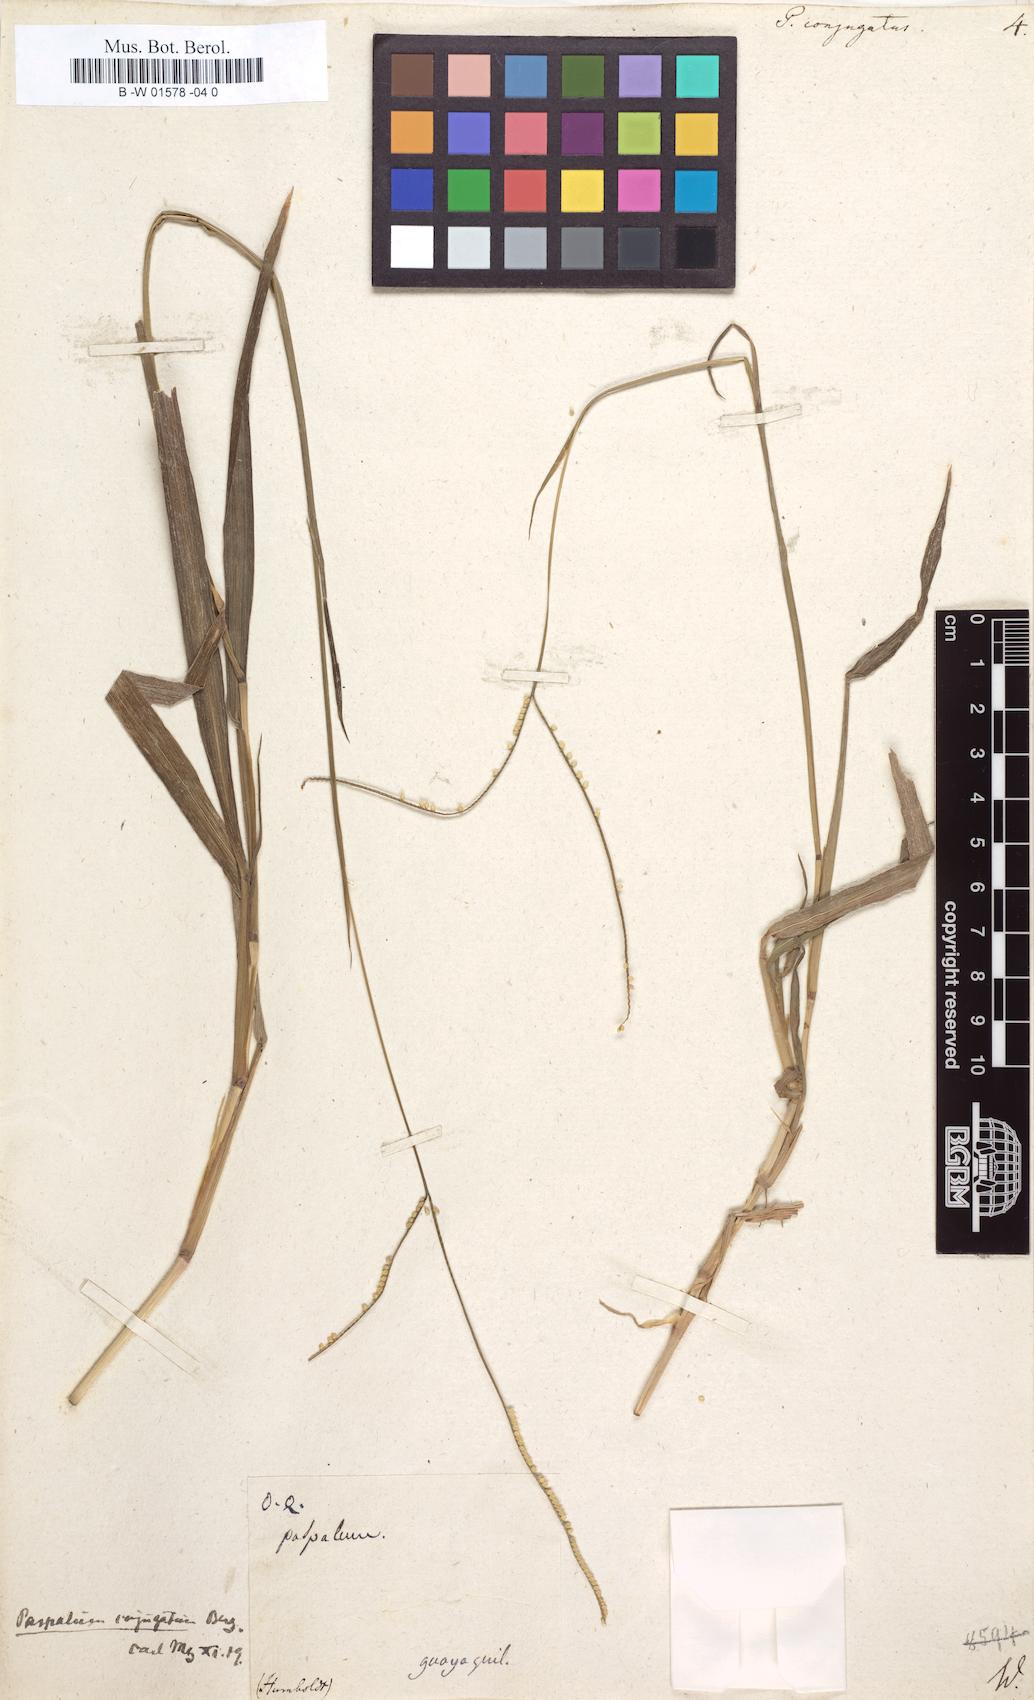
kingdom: Plantae
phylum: Tracheophyta
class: Liliopsida
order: Poales
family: Poaceae
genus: Paspalum
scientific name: Paspalum conjugatum
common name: Hilograss
